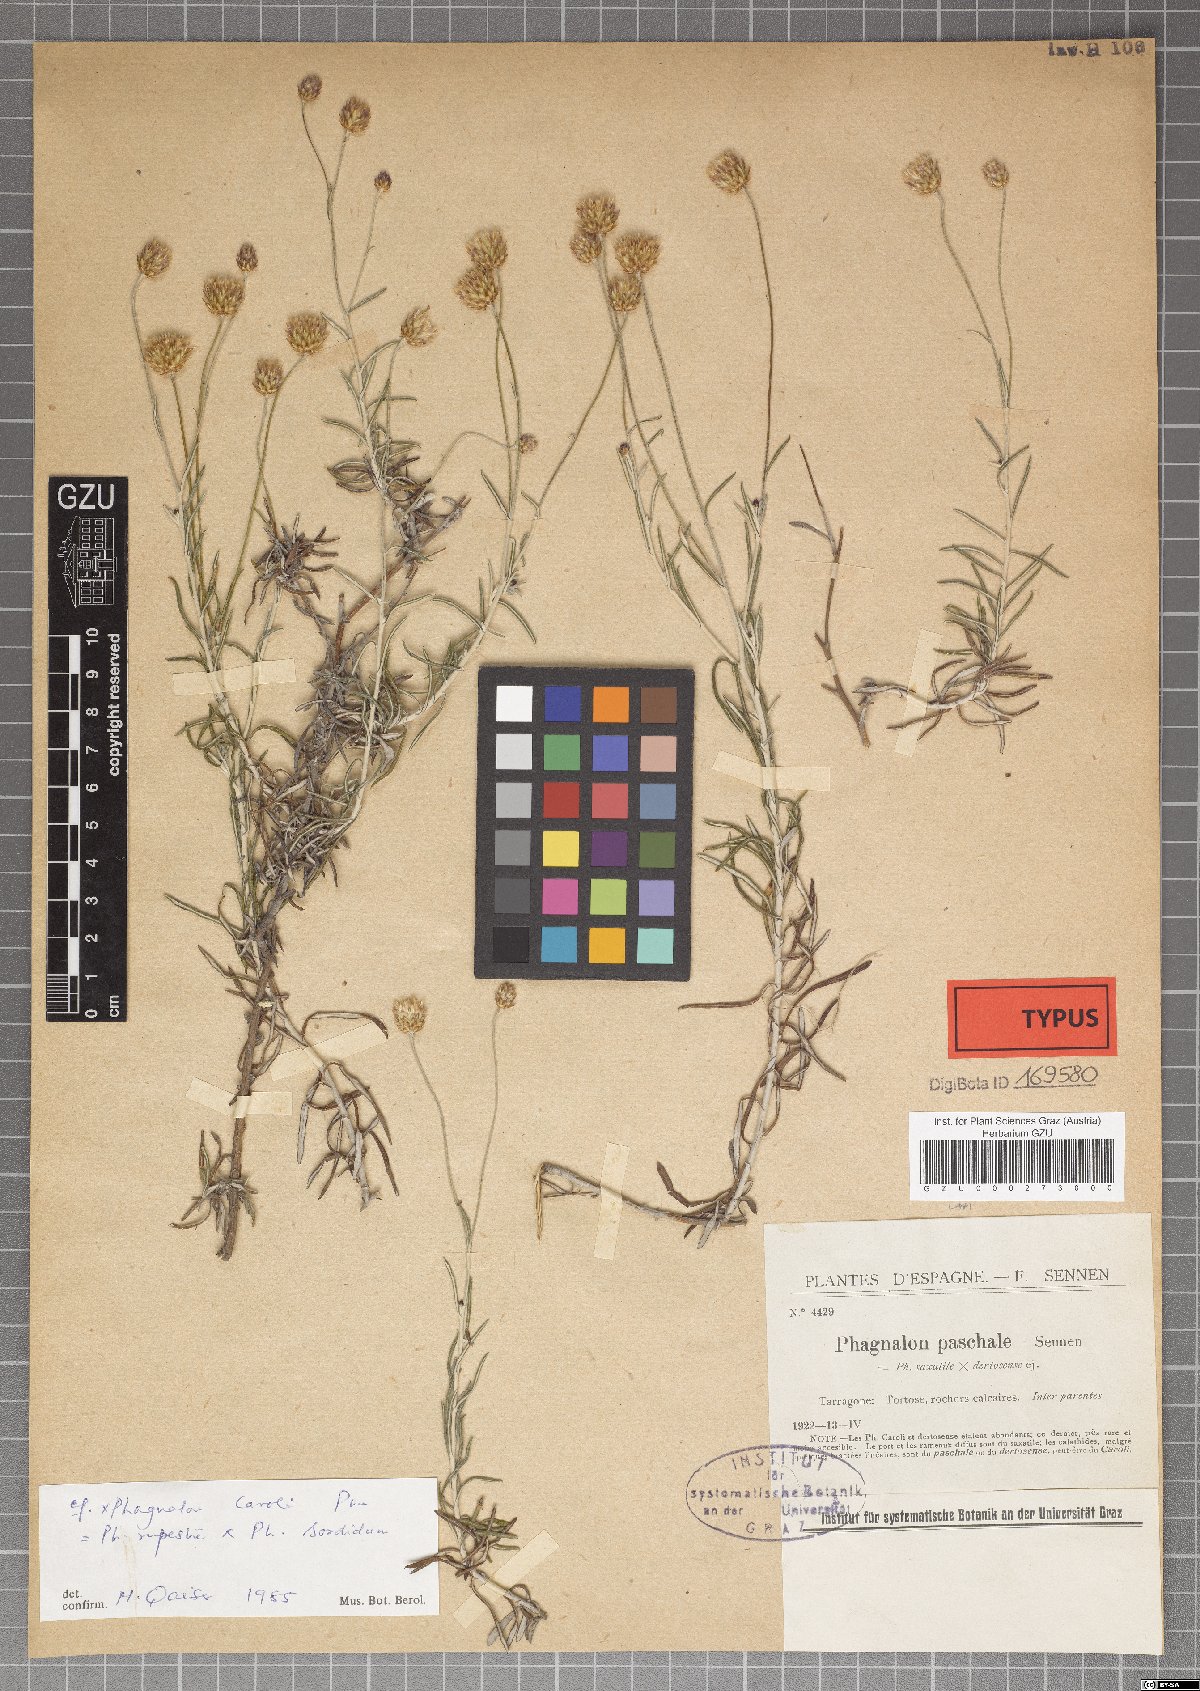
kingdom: Plantae
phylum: Tracheophyta
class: Magnoliopsida
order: Asterales
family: Asteraceae
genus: Phagnalon
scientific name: Phagnalon telonense
